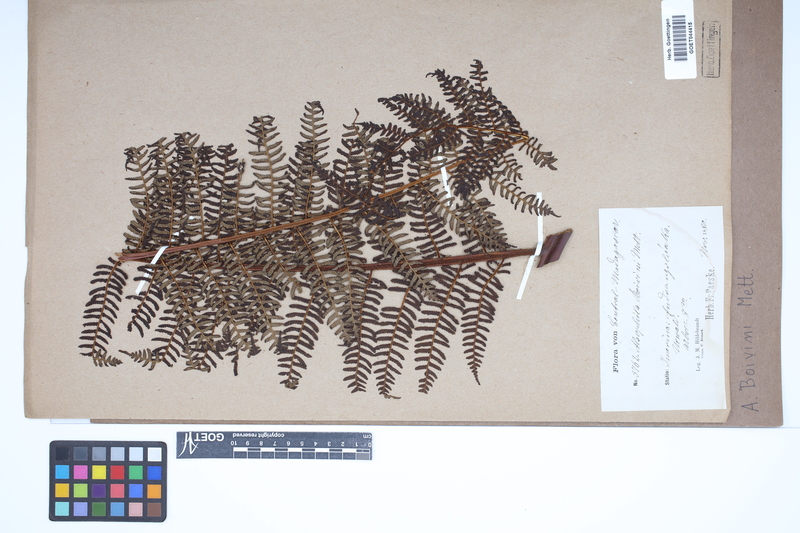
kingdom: Plantae
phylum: Tracheophyta
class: Polypodiopsida
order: Cyatheales
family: Cyatheaceae
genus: Gymnosphaera
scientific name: Gymnosphaera boivinii
